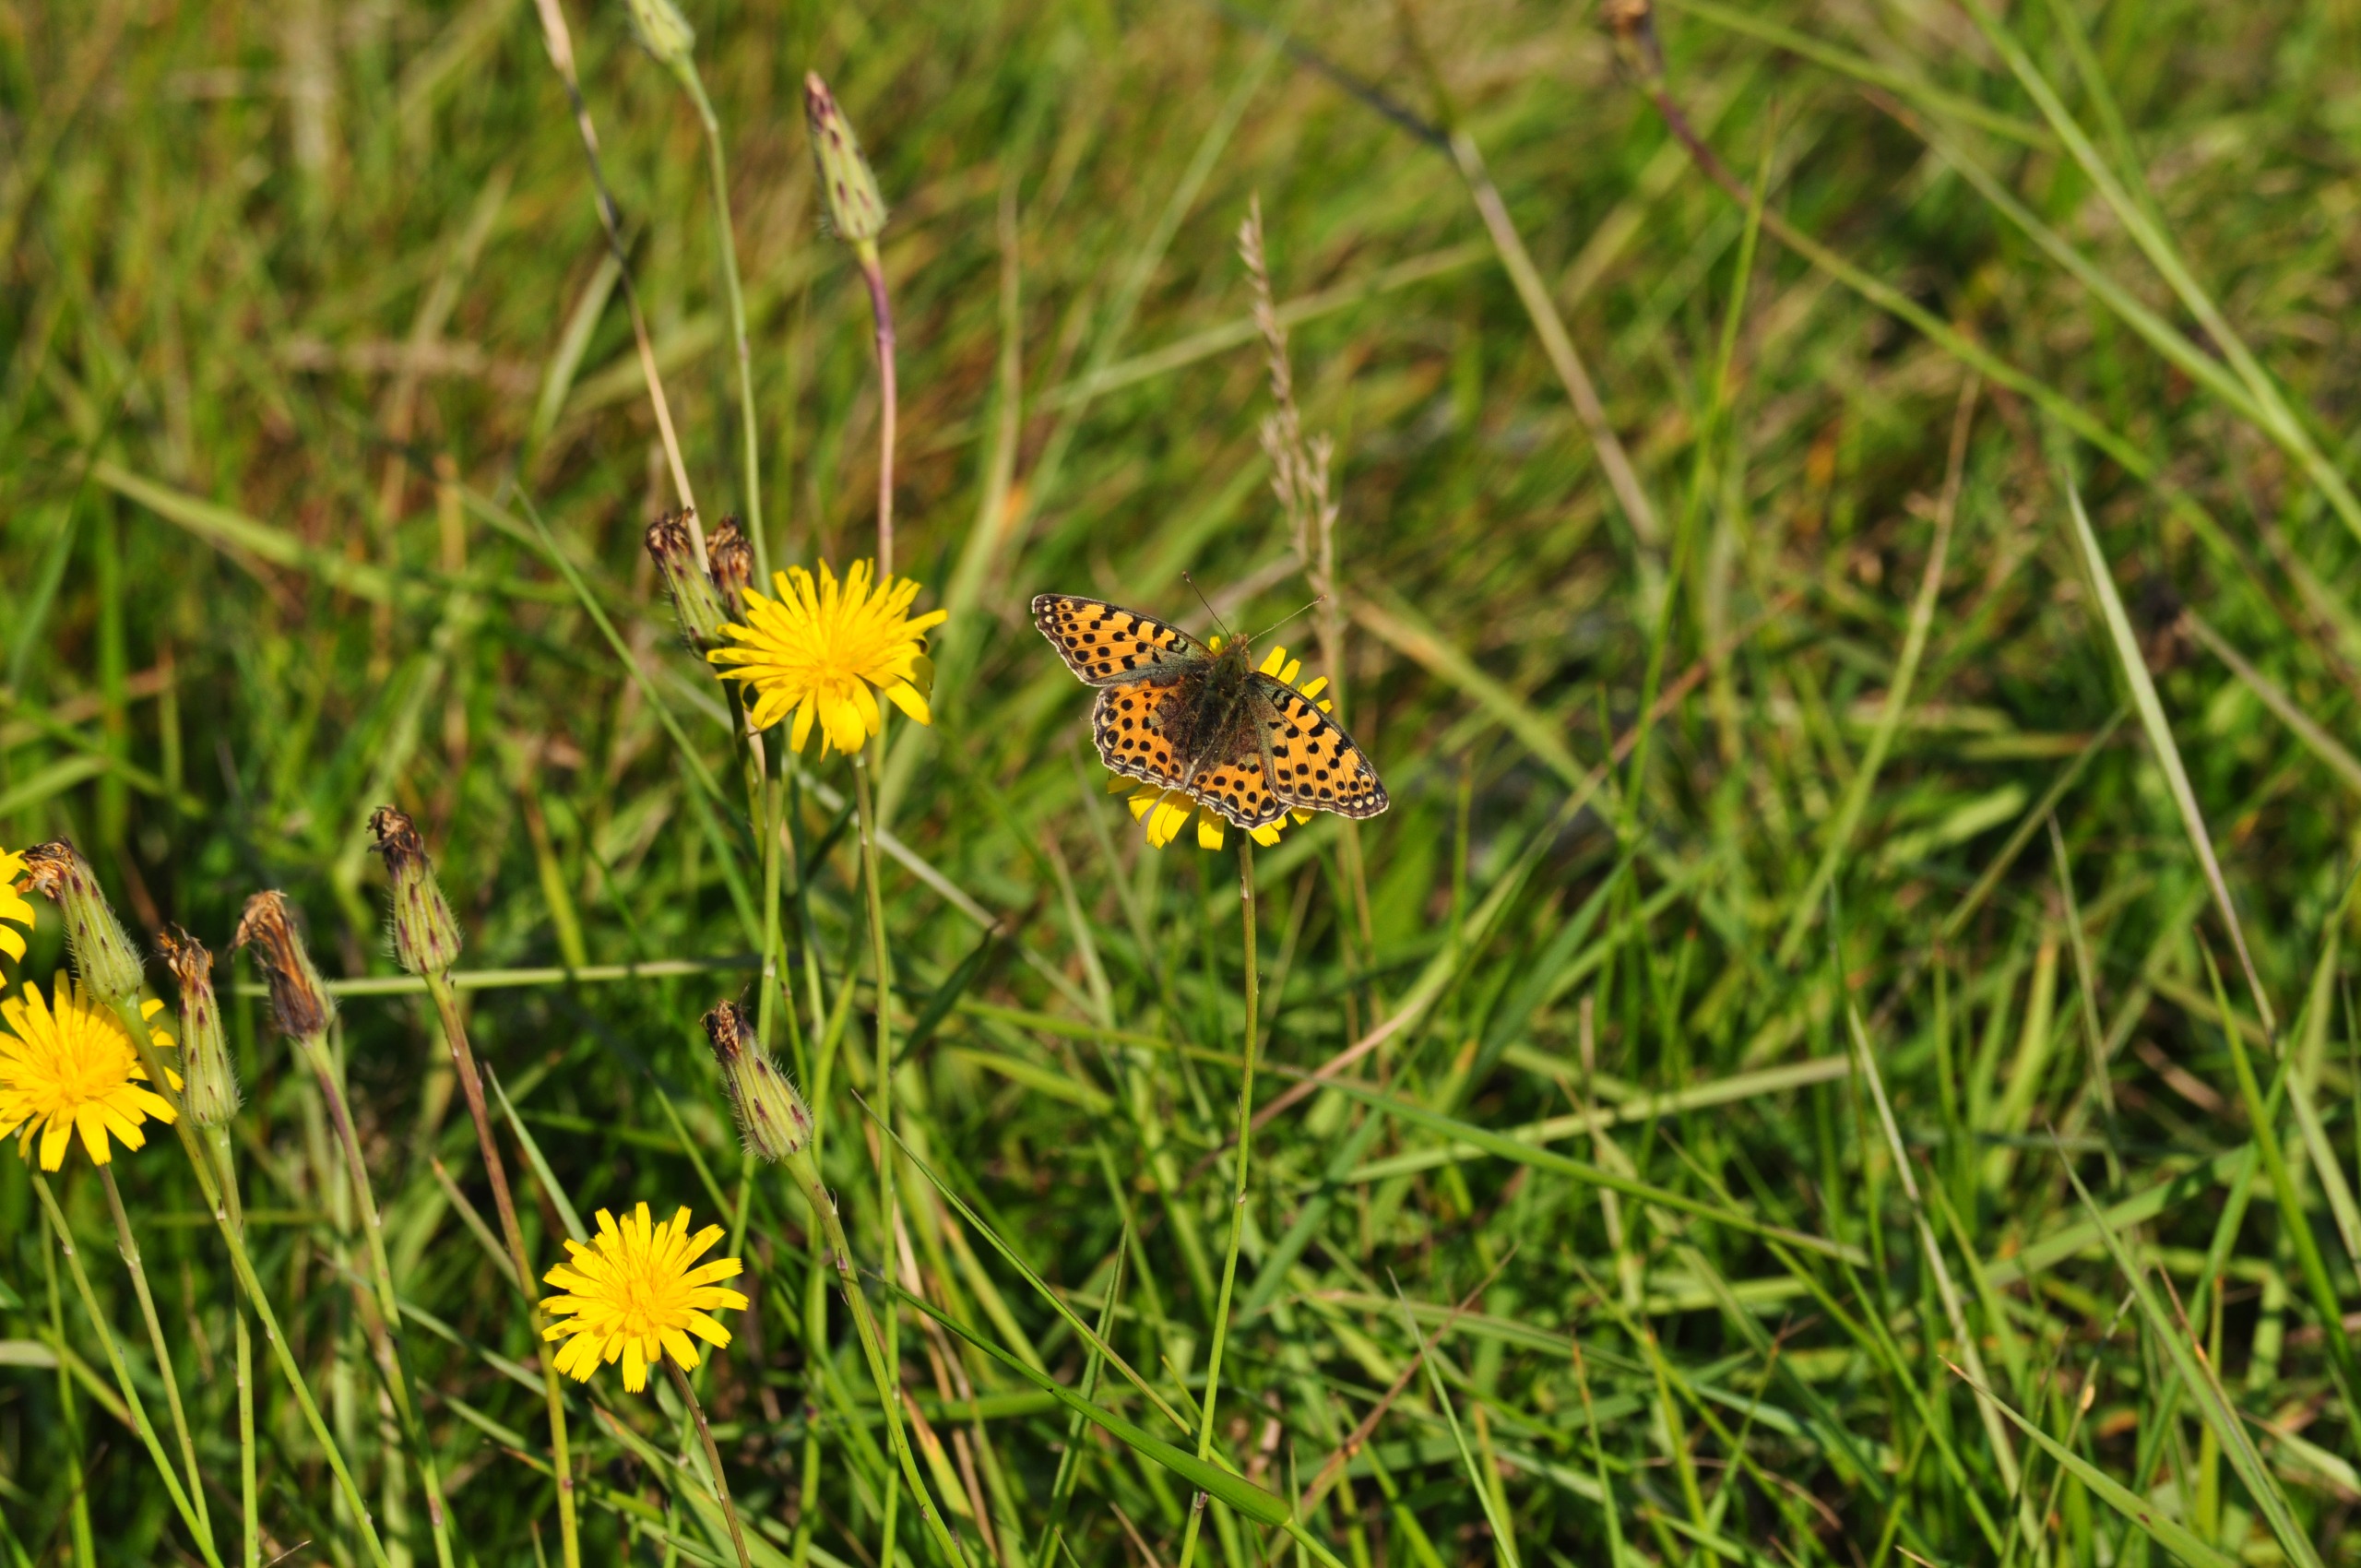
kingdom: Animalia
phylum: Arthropoda
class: Insecta
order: Lepidoptera
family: Nymphalidae
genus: Issoria
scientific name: Issoria lathonia
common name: Storplettet perlemorsommerfugl
